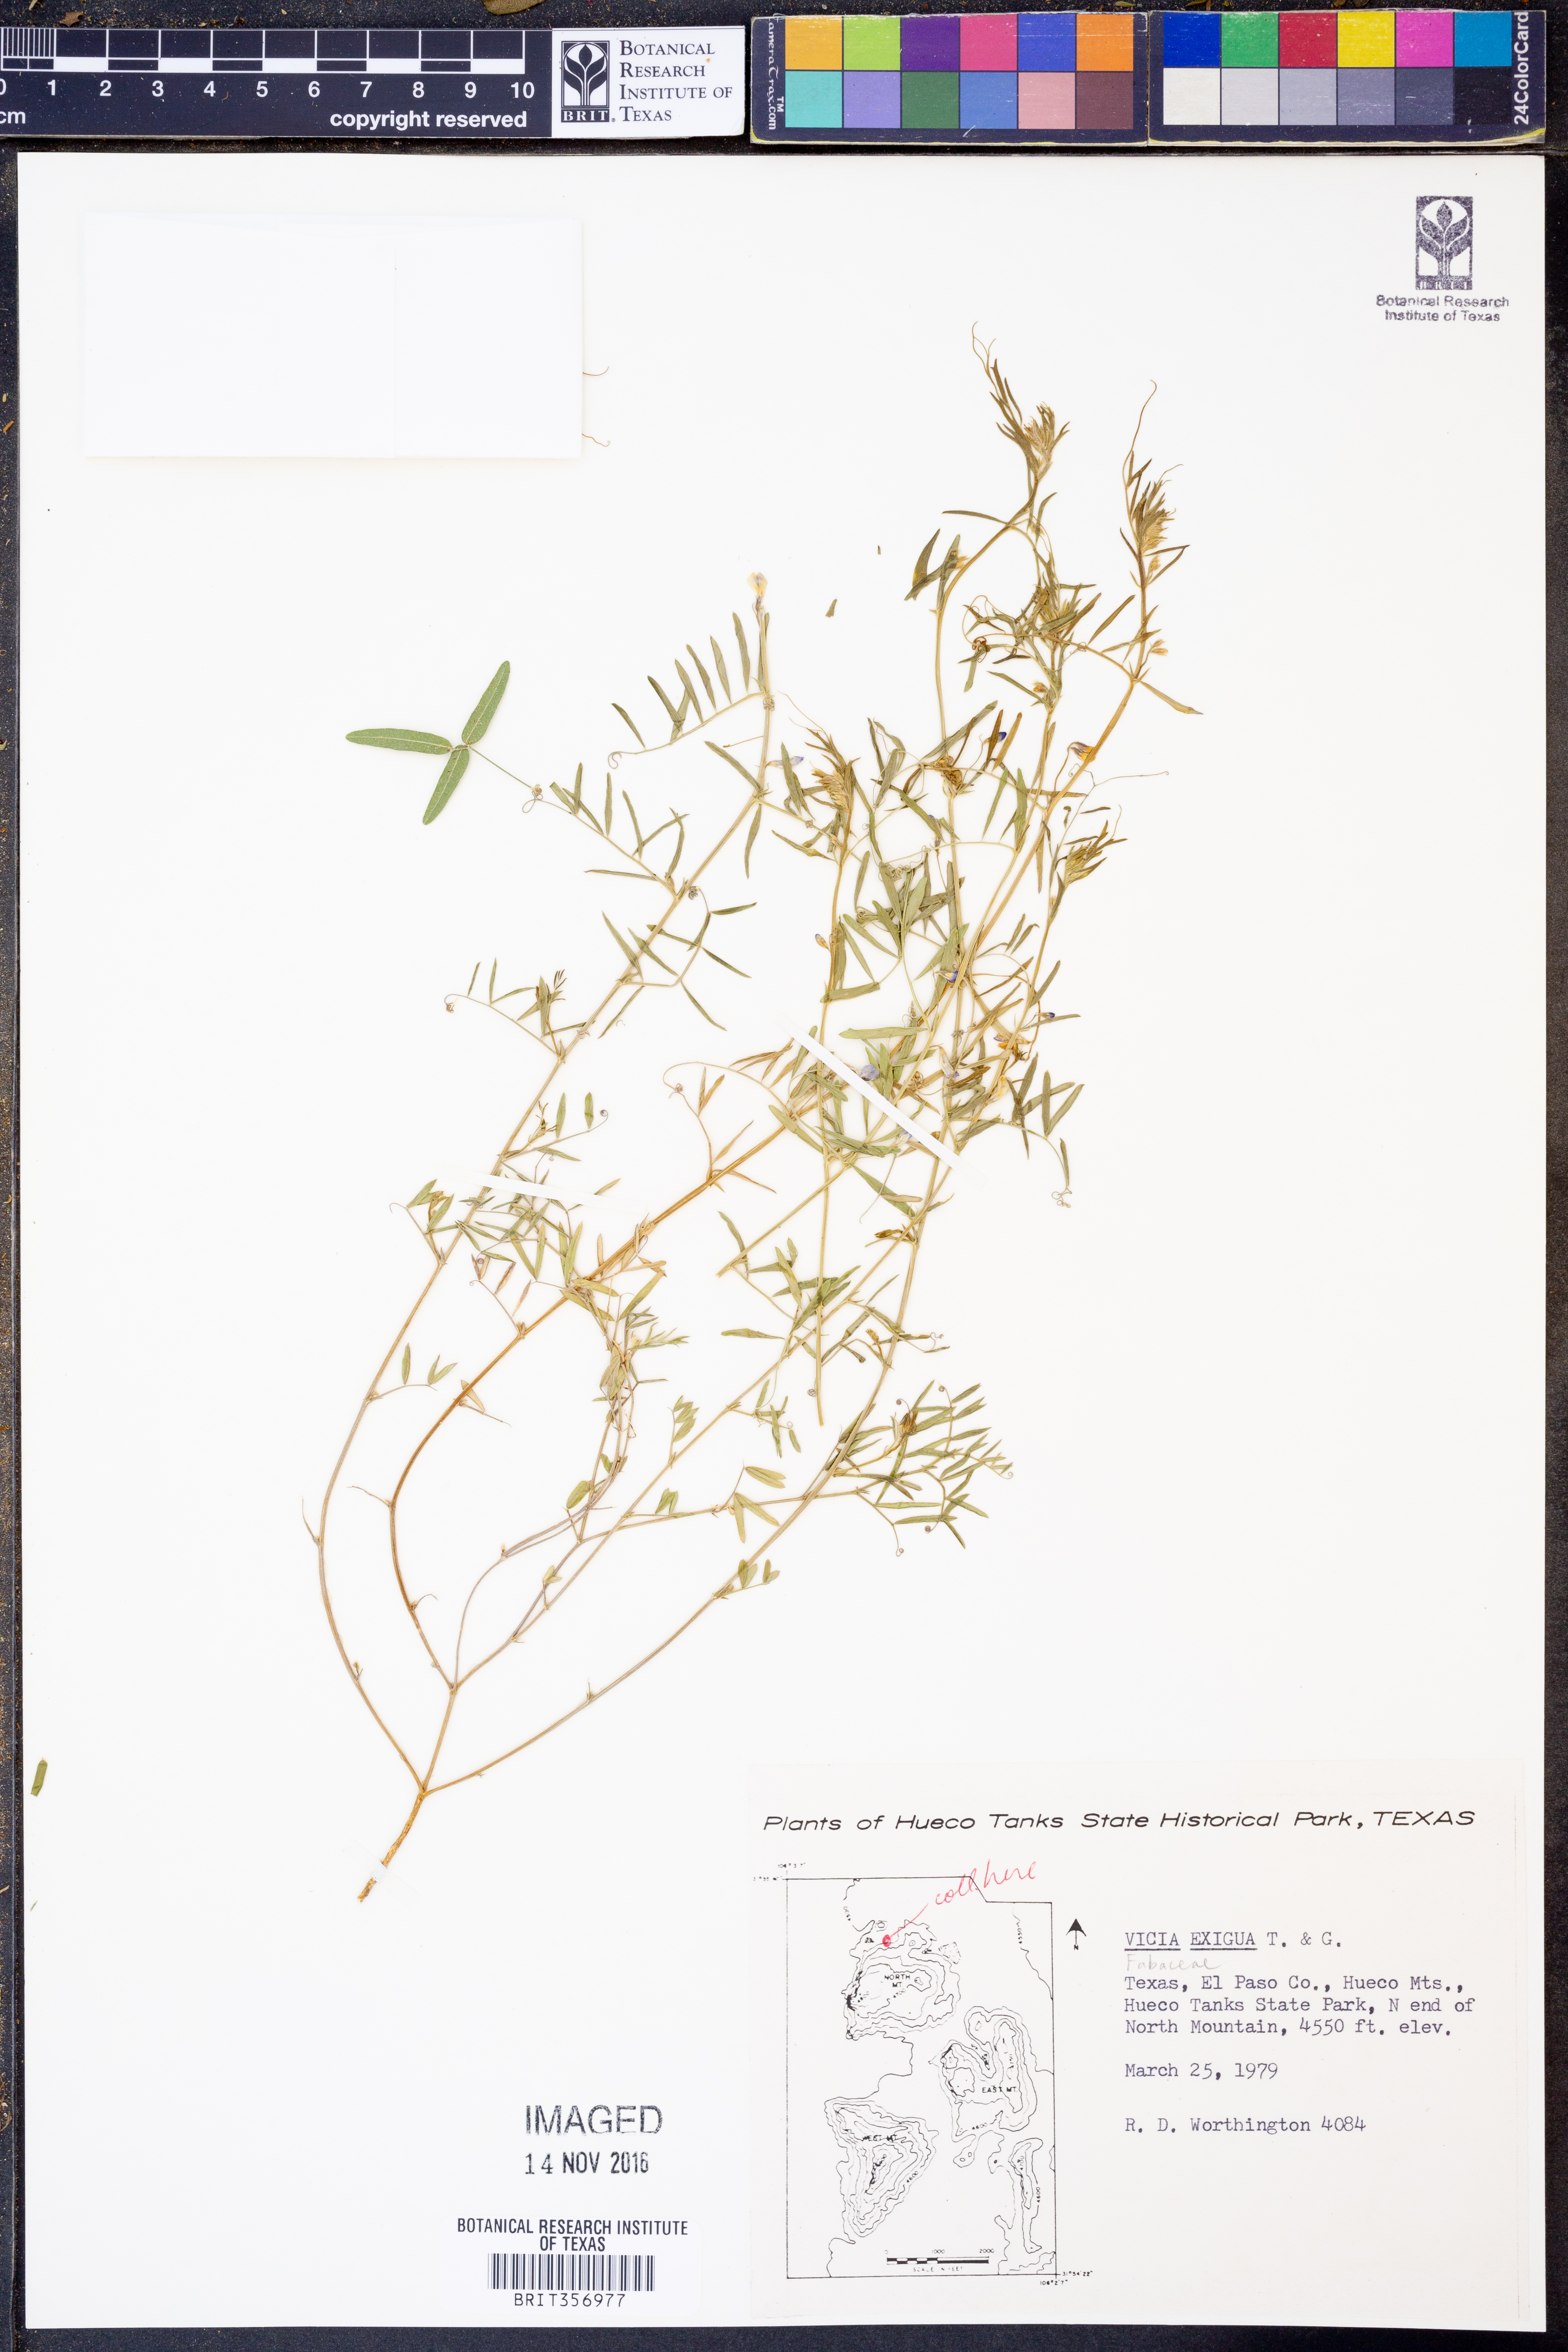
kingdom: Plantae
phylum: Tracheophyta
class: Magnoliopsida
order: Fabales
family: Fabaceae
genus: Vicia
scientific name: Vicia ludoviciana
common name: Louisiana vetch
